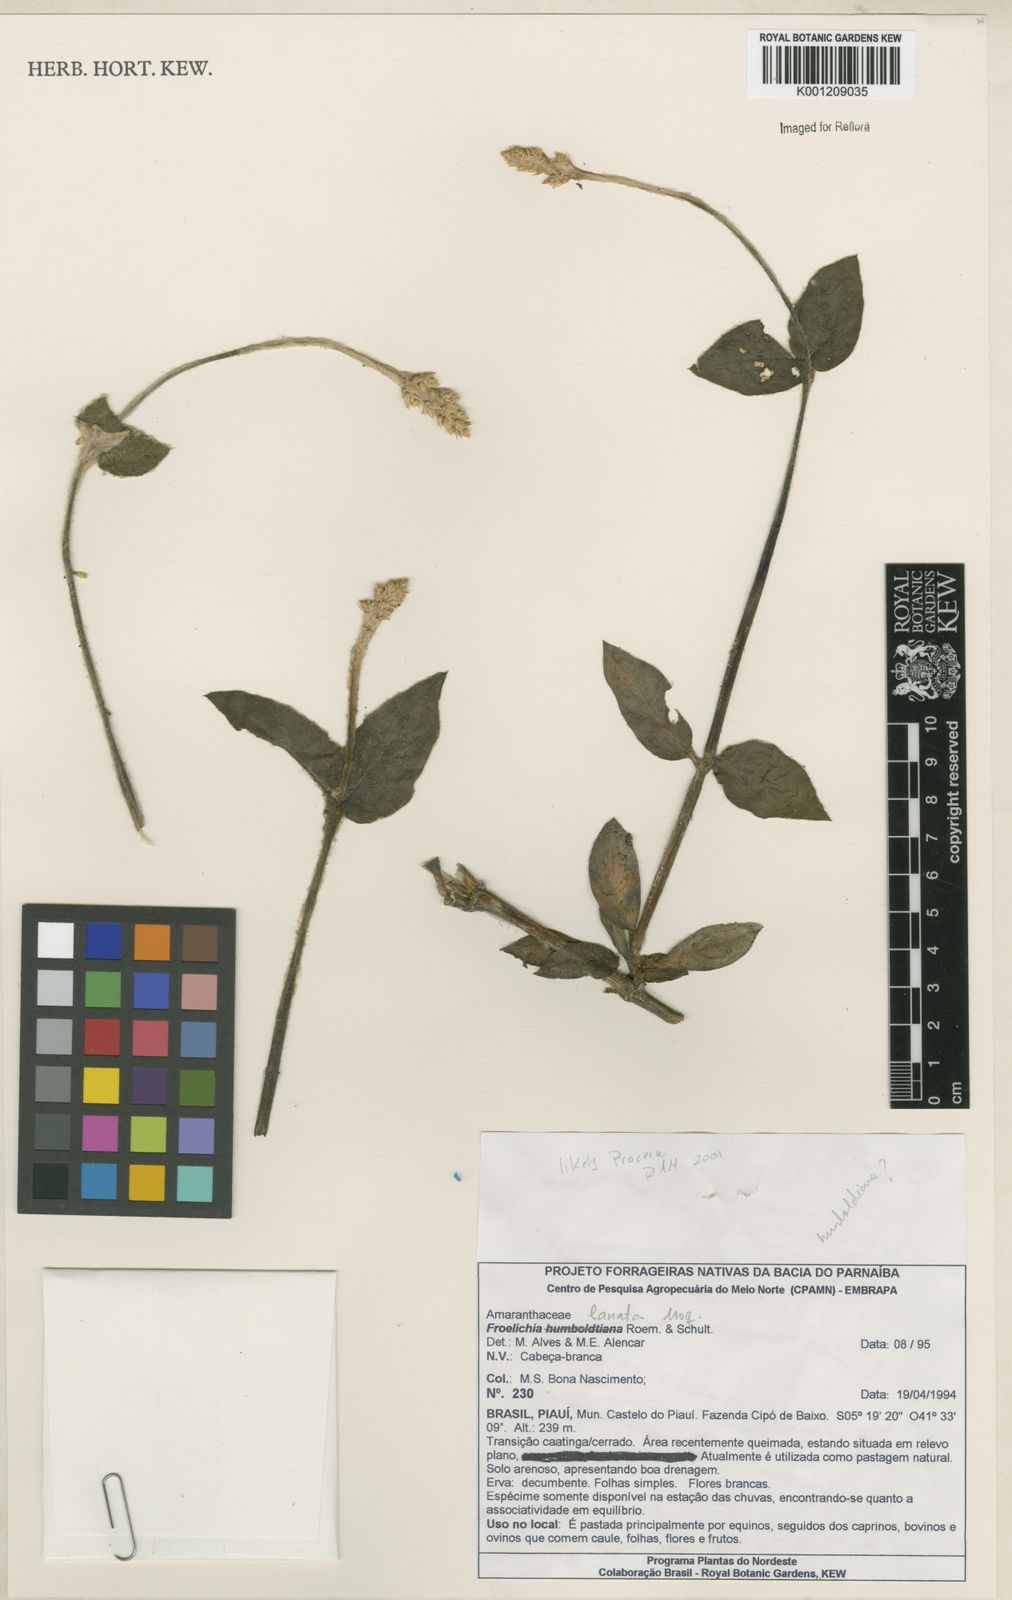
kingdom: Plantae
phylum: Tracheophyta
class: Magnoliopsida
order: Caryophyllales
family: Amaranthaceae
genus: Froelichia
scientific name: Froelichia humboldtiana
